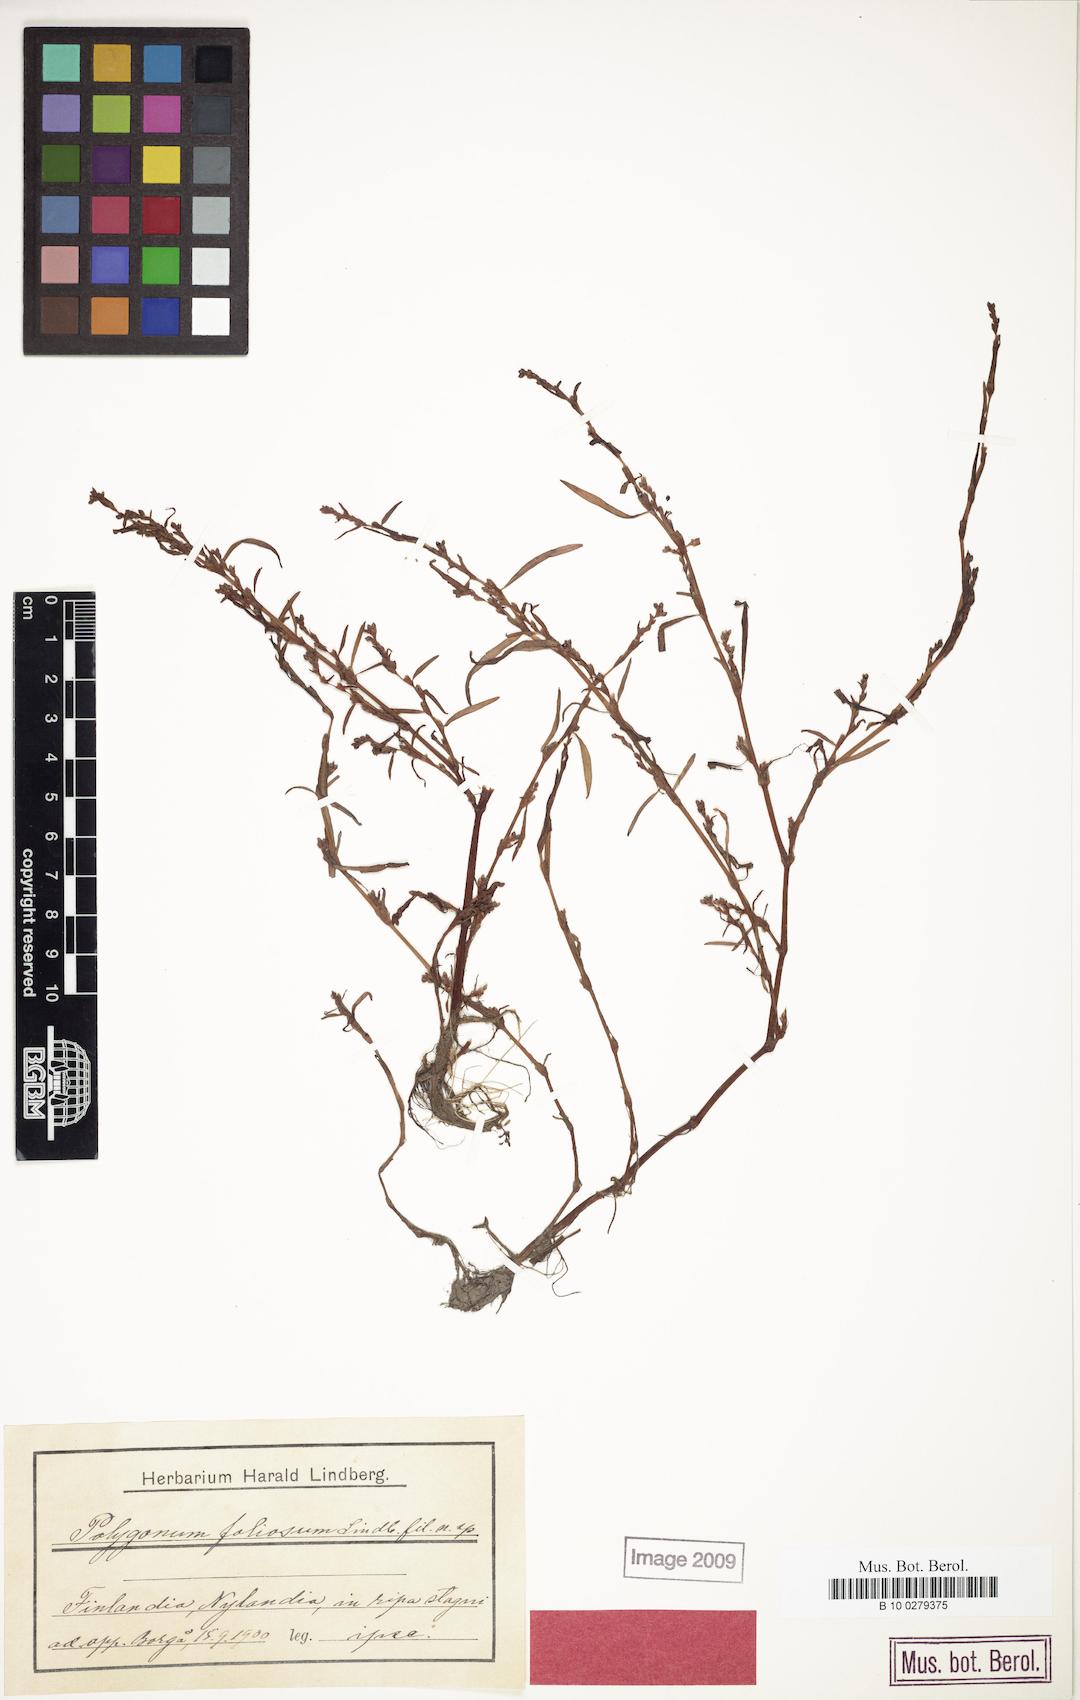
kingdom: Plantae
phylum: Tracheophyta
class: Magnoliopsida
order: Caryophyllales
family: Polygonaceae
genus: Persicaria
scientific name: Persicaria foliosa
